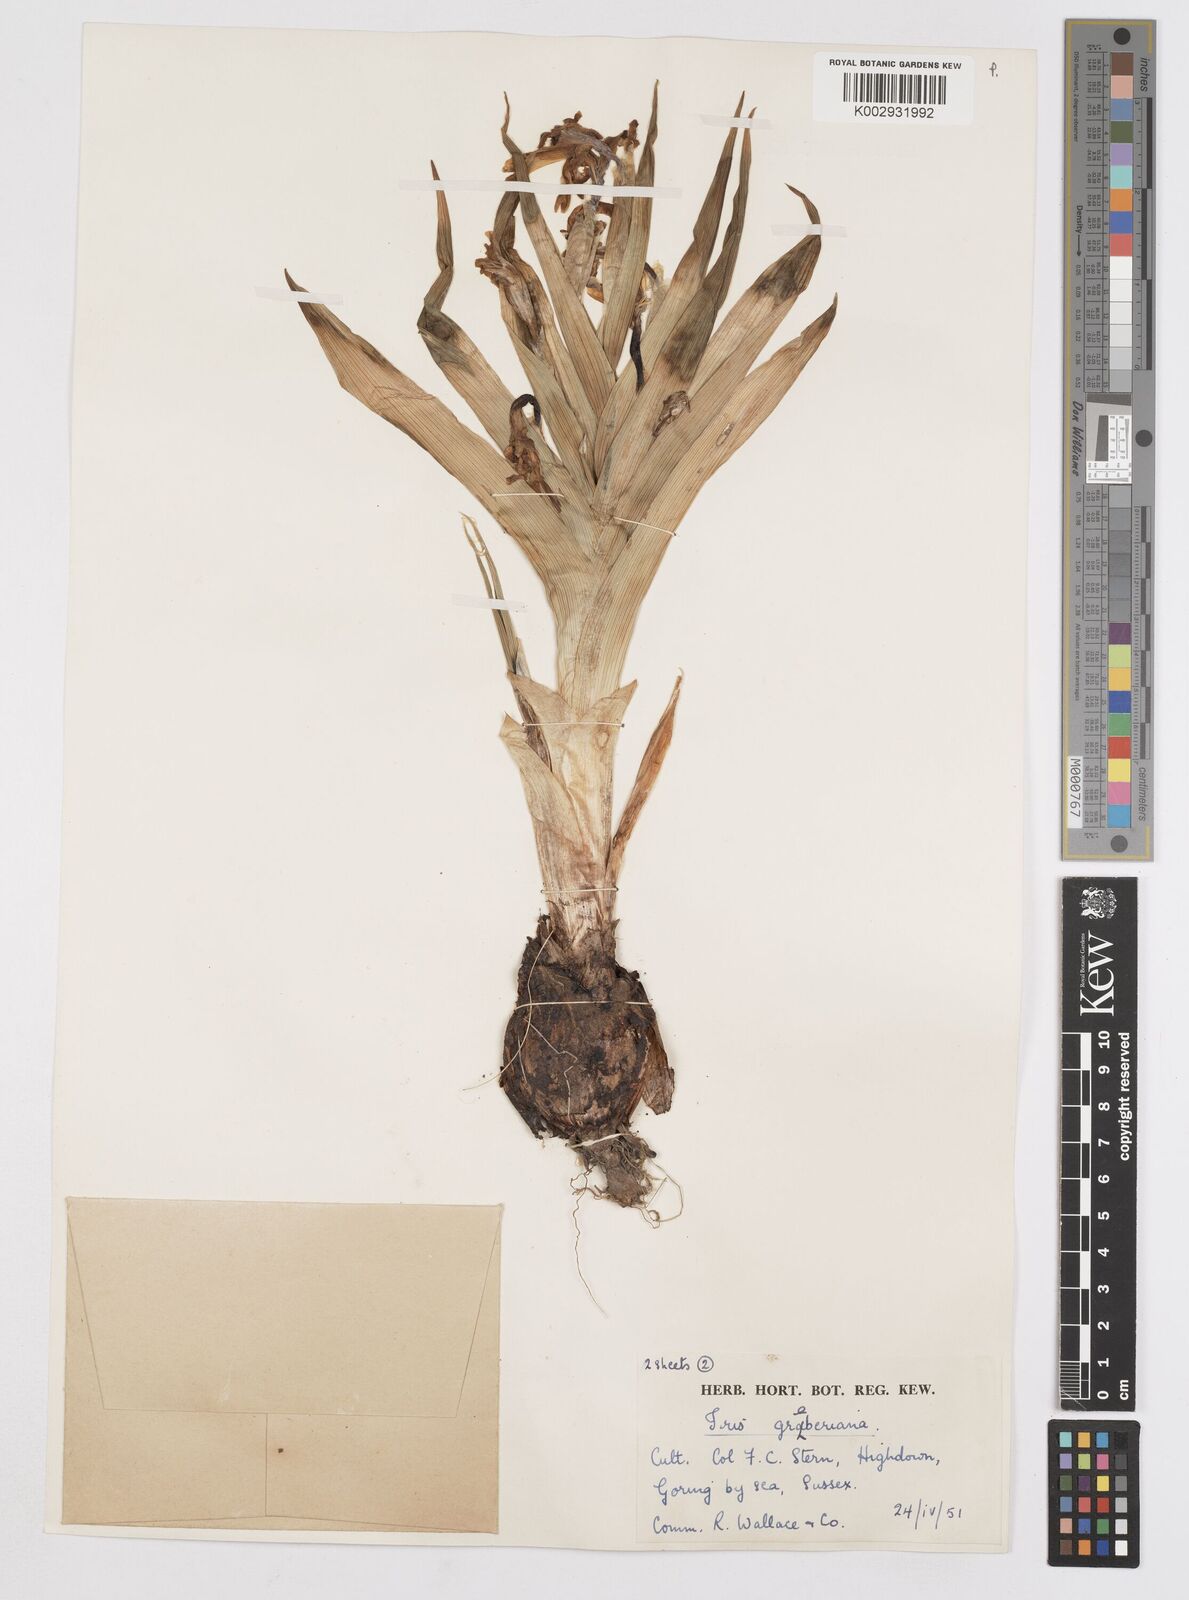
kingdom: Plantae
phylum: Tracheophyta
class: Liliopsida
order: Asparagales
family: Iridaceae
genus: Iris
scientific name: Iris graeberiana
